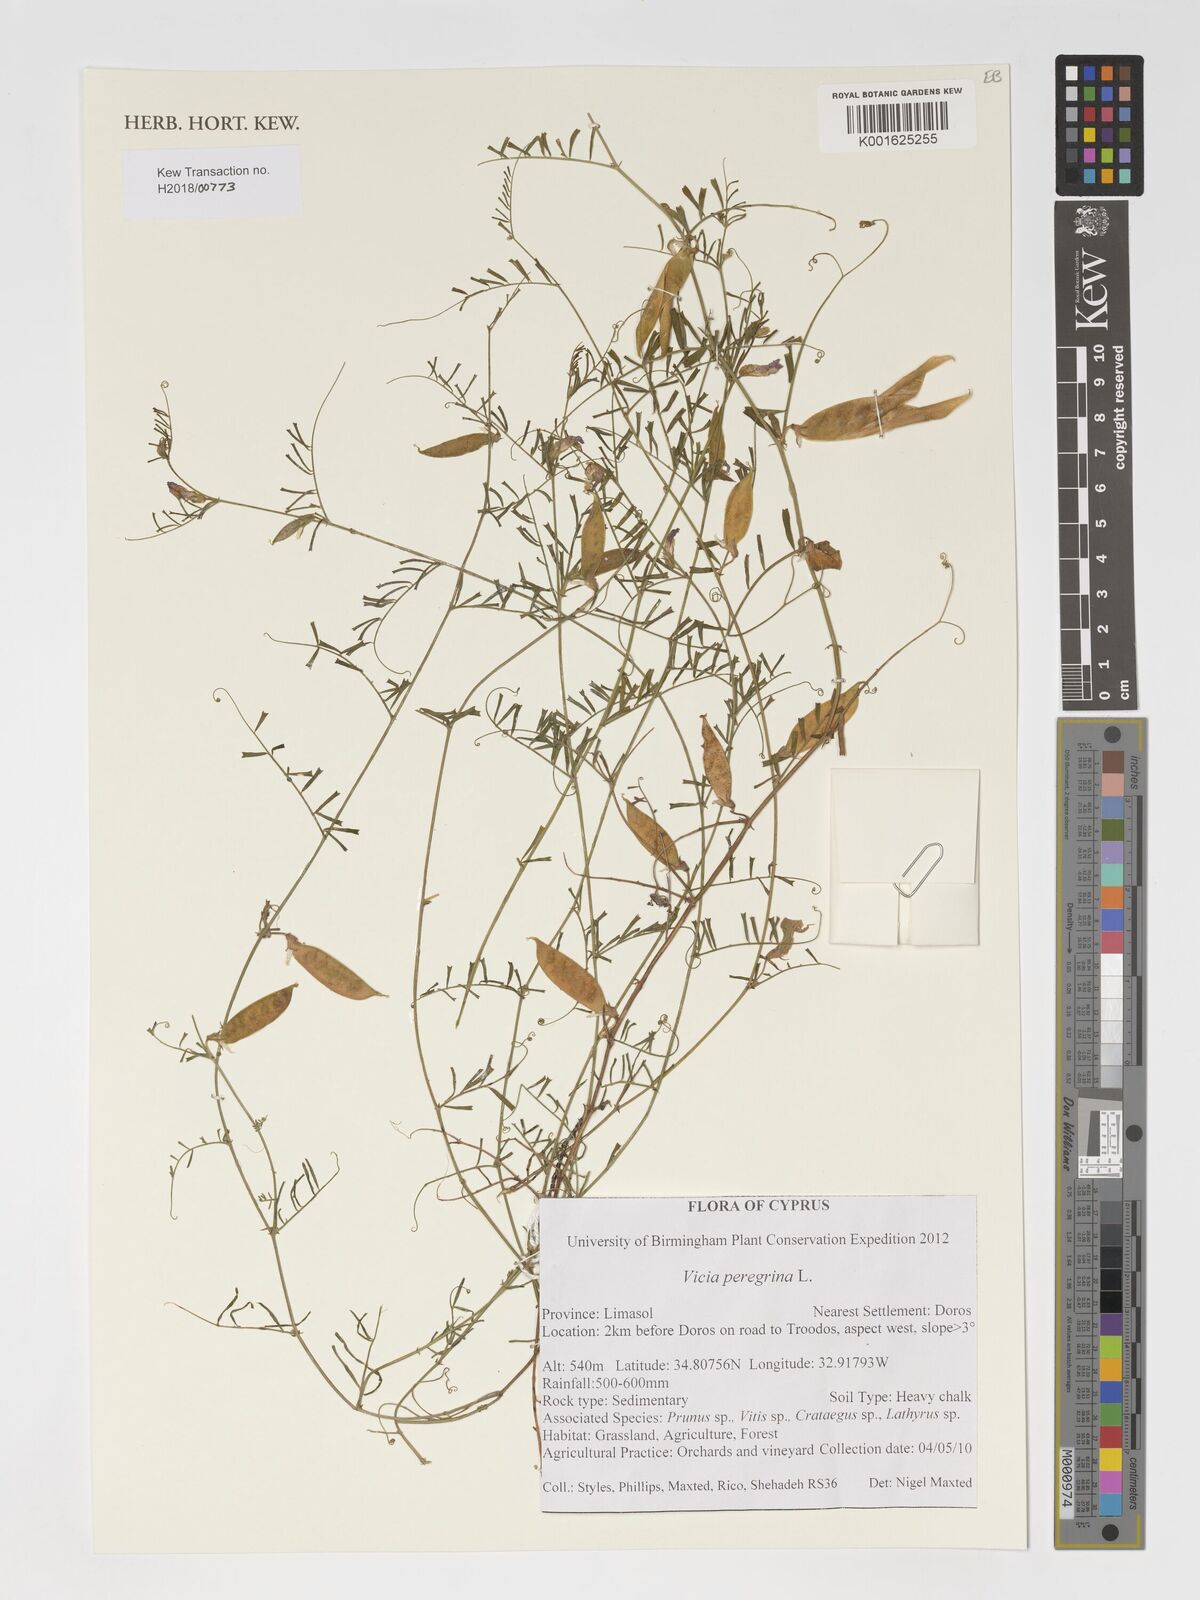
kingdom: Plantae
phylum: Tracheophyta
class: Magnoliopsida
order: Fabales
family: Fabaceae
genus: Vicia
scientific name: Vicia peregrina
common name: Broad-pod vetch
